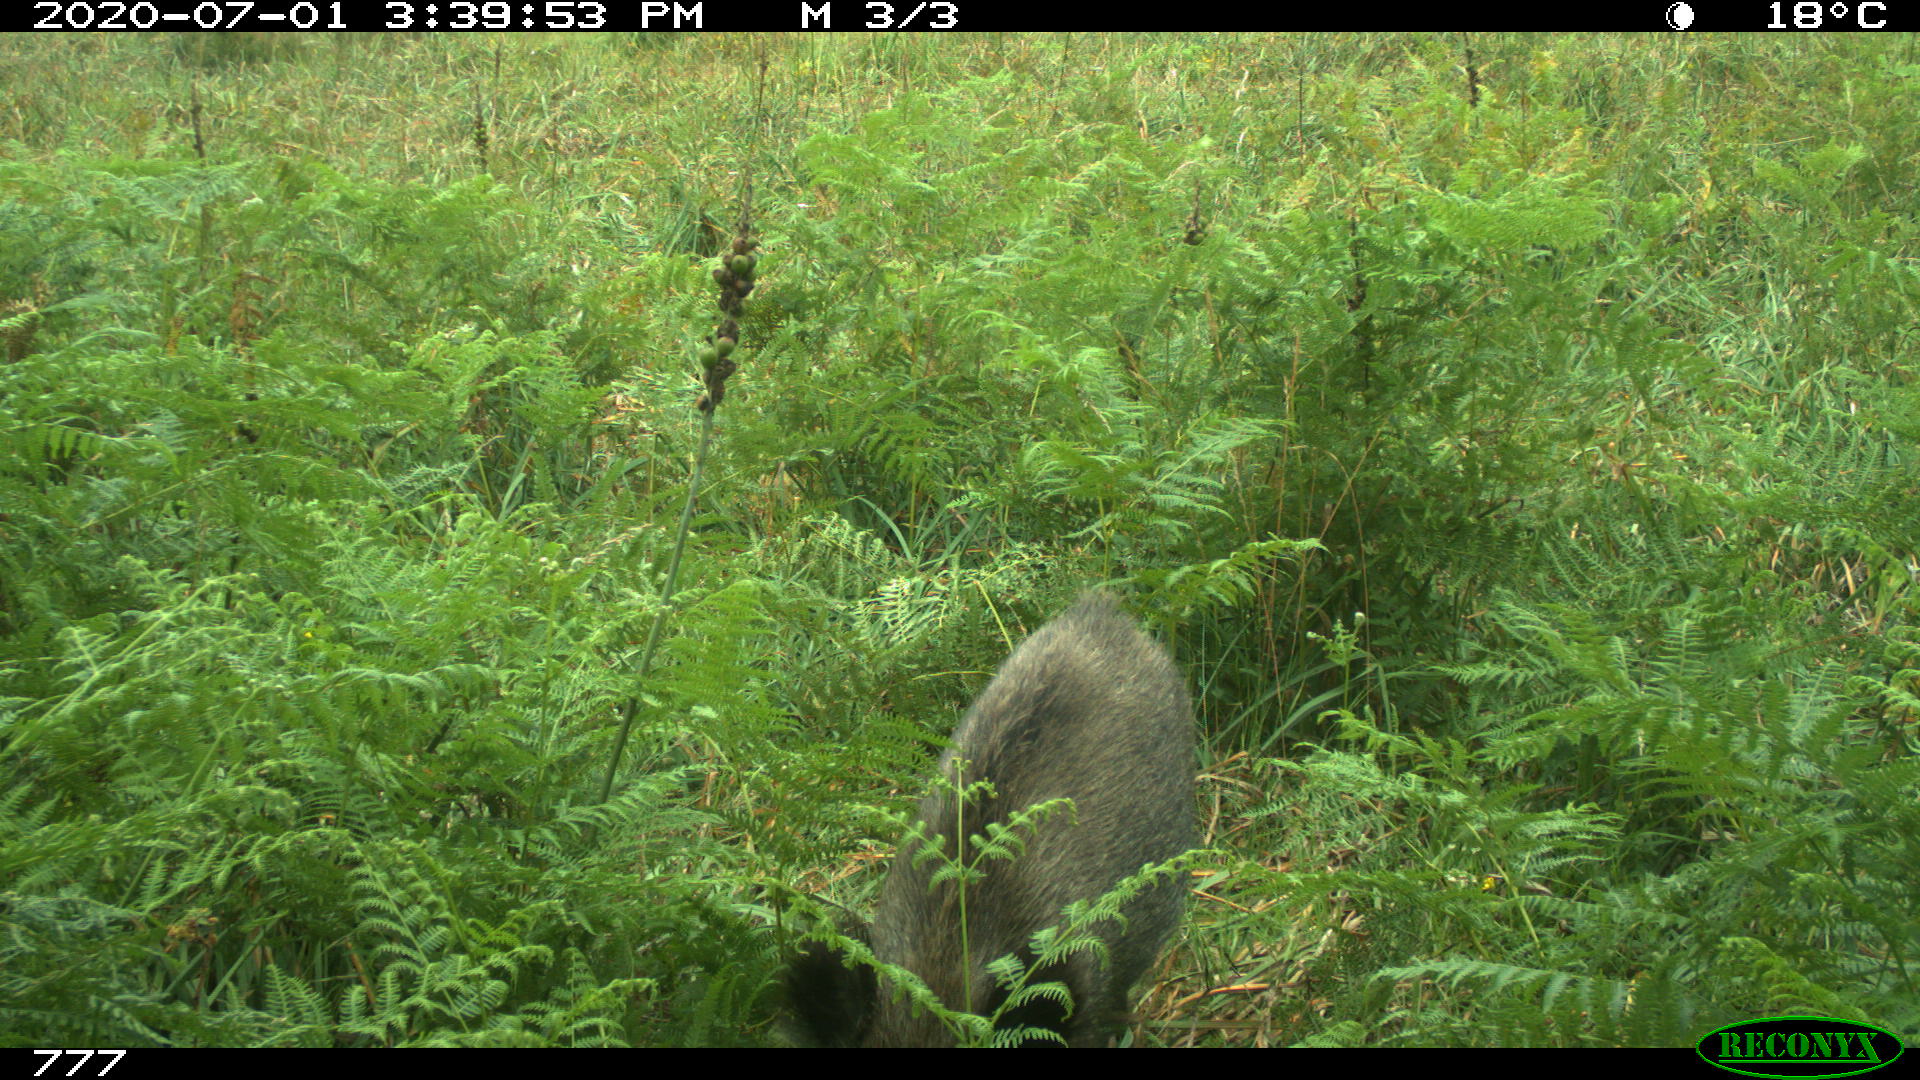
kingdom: Animalia
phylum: Chordata
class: Mammalia
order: Artiodactyla
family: Suidae
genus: Sus
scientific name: Sus scrofa
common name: Wild boar
